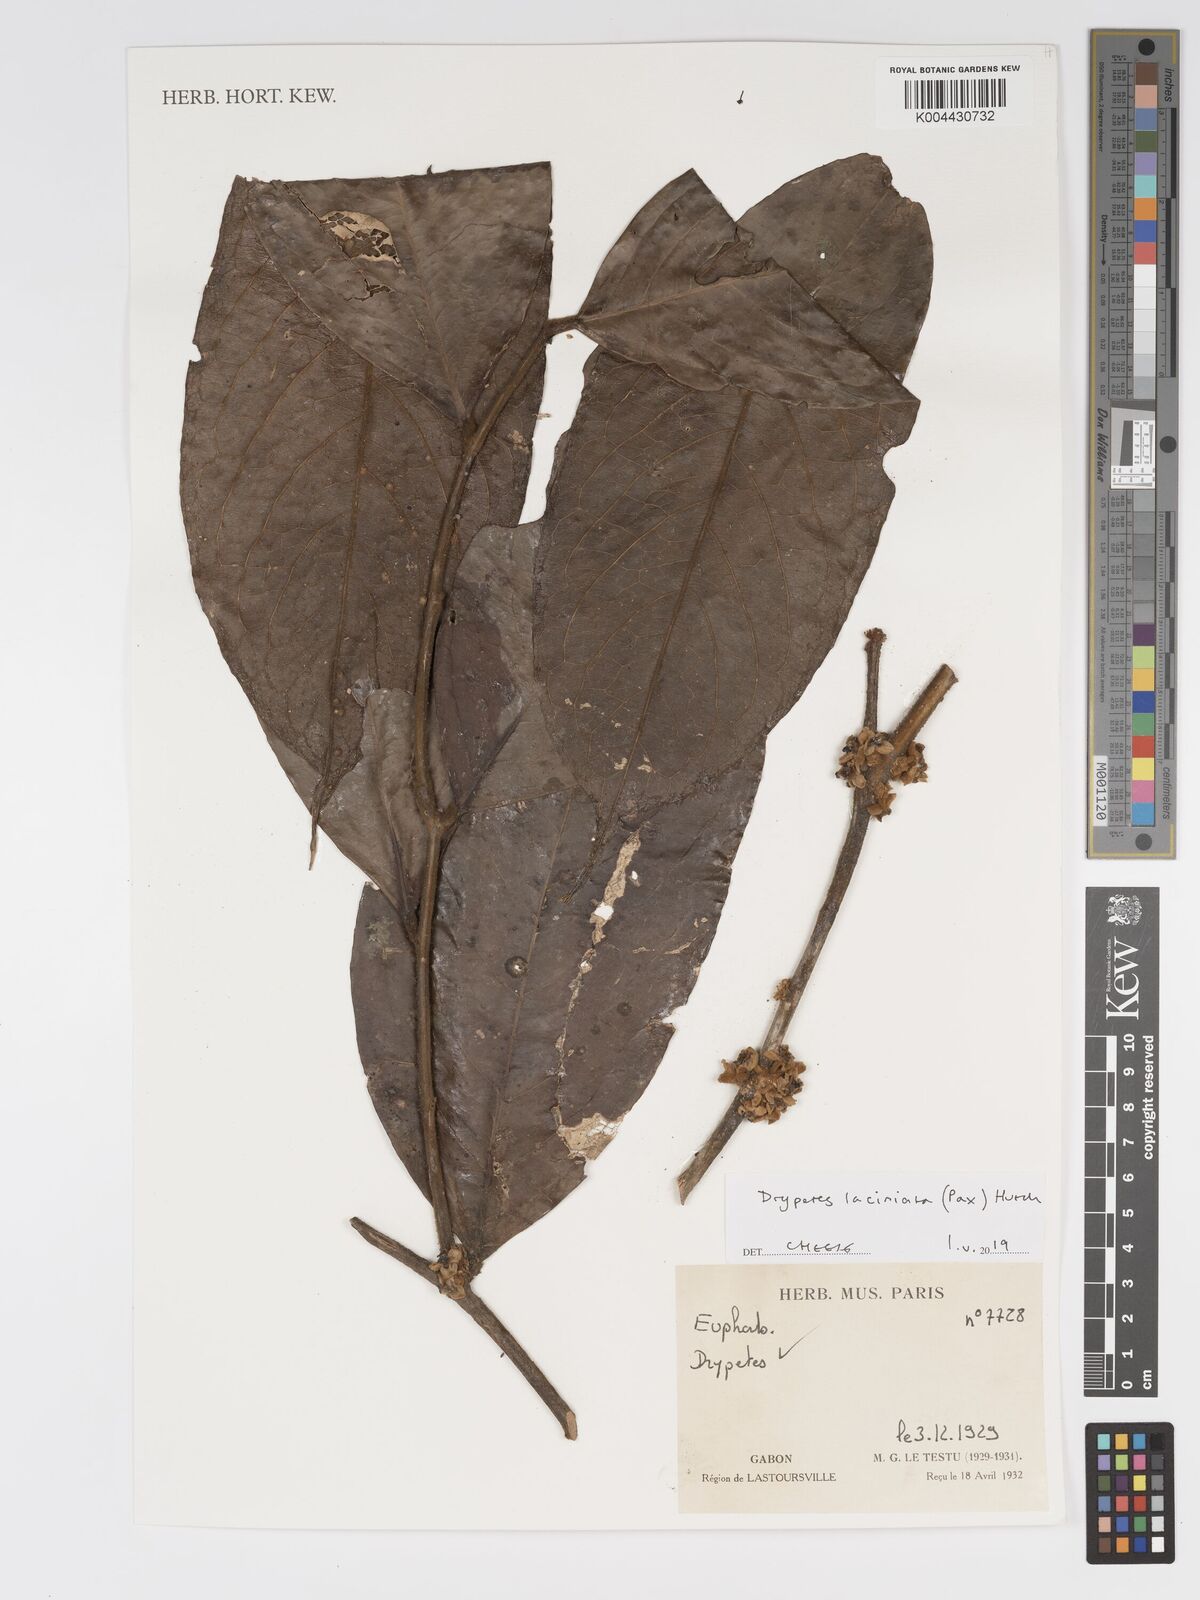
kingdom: Plantae
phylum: Tracheophyta
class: Magnoliopsida
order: Malpighiales
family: Putranjivaceae
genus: Drypetes
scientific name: Drypetes laciniata
